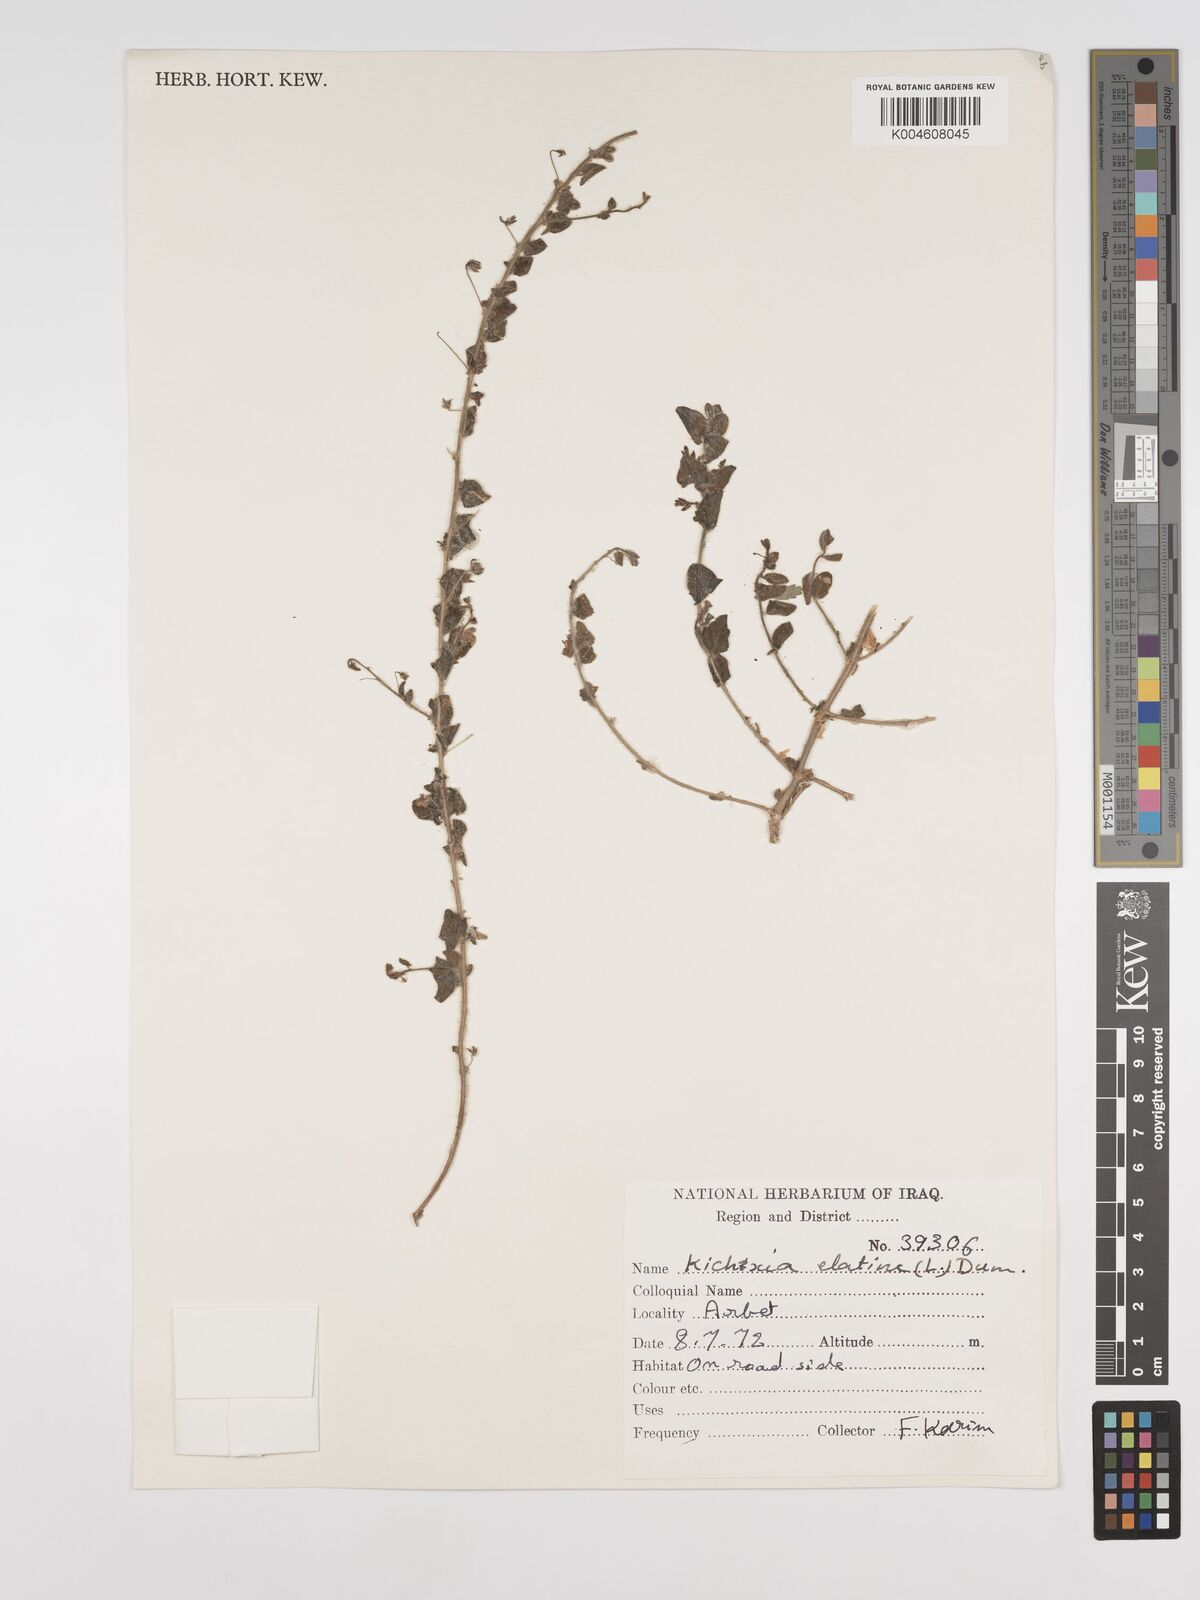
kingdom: Plantae
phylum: Tracheophyta
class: Magnoliopsida
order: Lamiales
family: Plantaginaceae
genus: Kickxia
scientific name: Kickxia elatine
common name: Sharp-leaved fluellen
